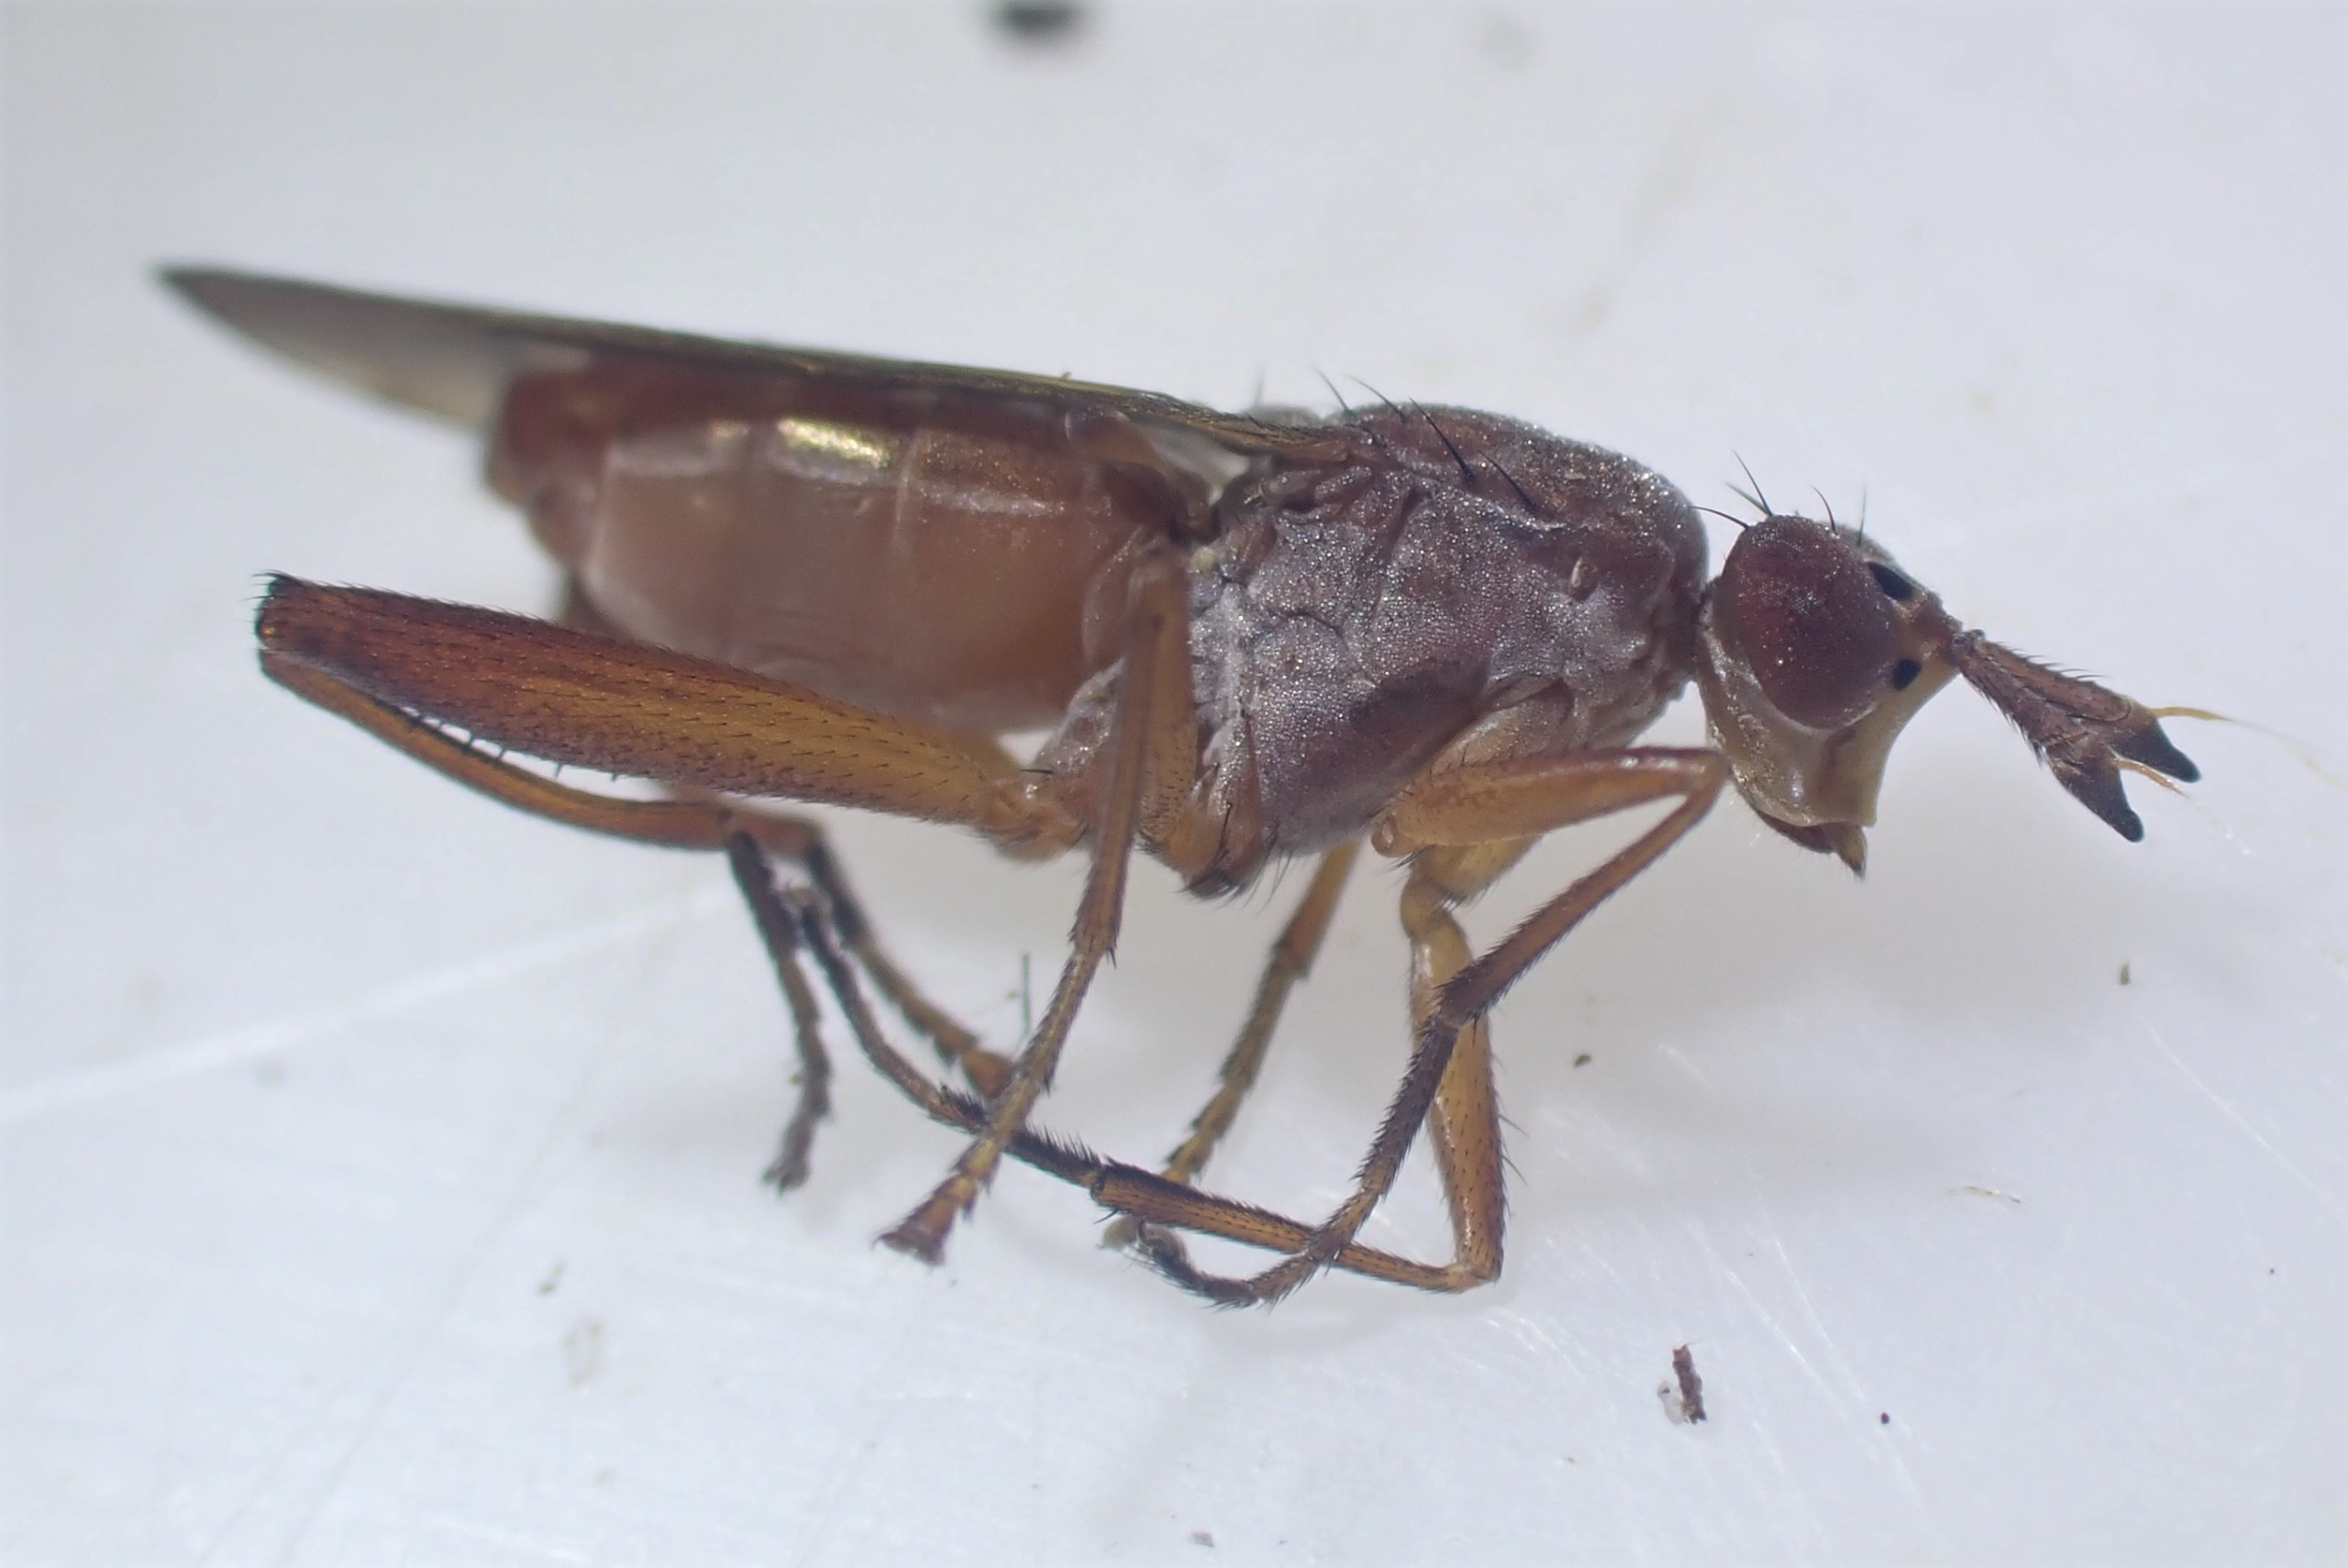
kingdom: Animalia
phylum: Arthropoda
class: Insecta
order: Diptera
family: Sciomyzidae
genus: Sepedon
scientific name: Sepedon spinipes
